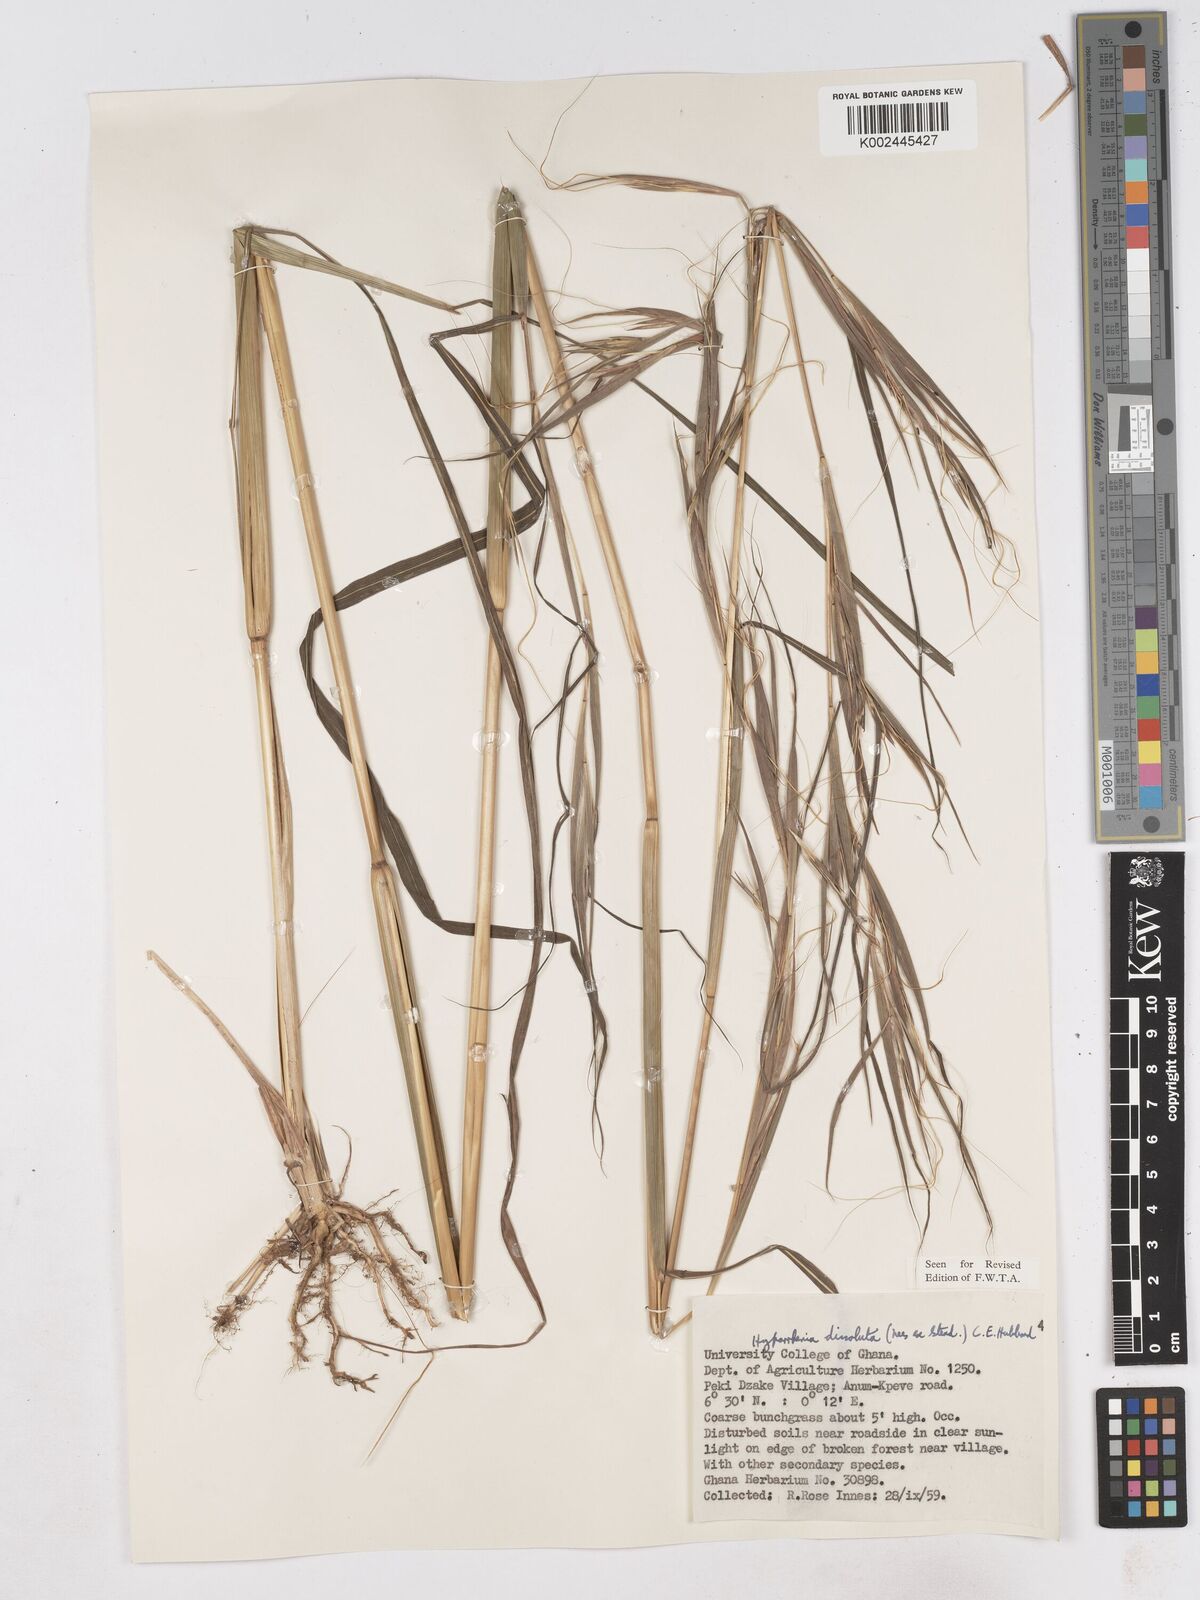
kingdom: Plantae
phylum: Tracheophyta
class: Liliopsida
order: Poales
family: Poaceae
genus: Hyperthelia
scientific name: Hyperthelia dissoluta
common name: Yellow thatching grass
